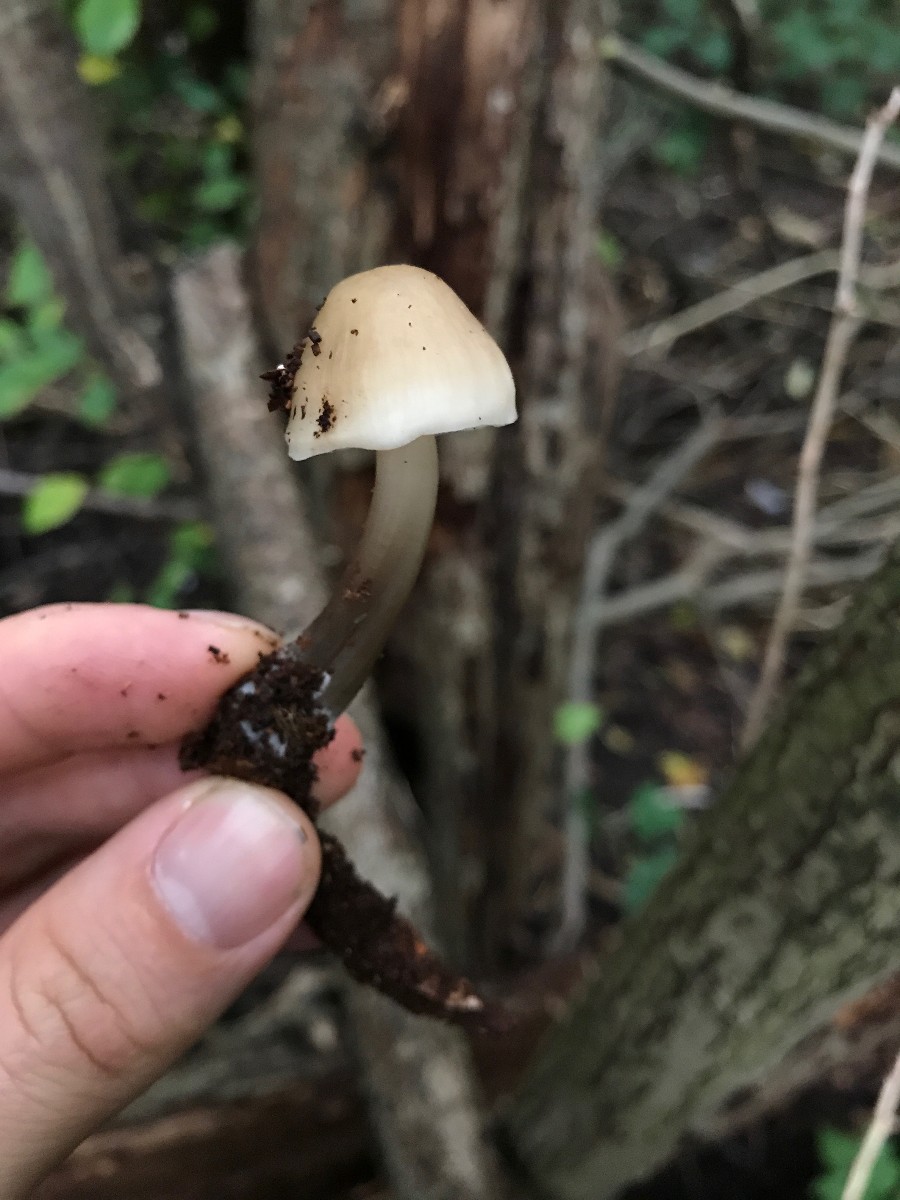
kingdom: Fungi
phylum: Basidiomycota
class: Agaricomycetes
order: Agaricales
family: Mycenaceae
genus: Mycena
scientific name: Mycena galericulata
